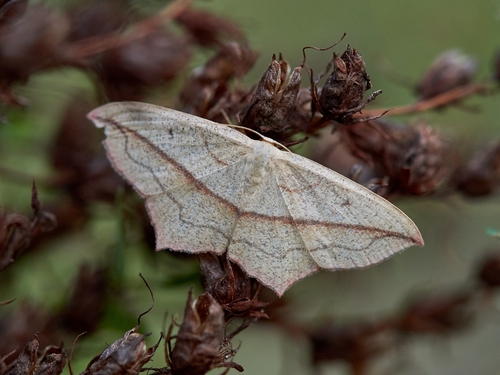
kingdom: Animalia
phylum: Arthropoda
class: Insecta
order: Lepidoptera
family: Geometridae
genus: Timandra
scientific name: Timandra comae
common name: Blood-vein
